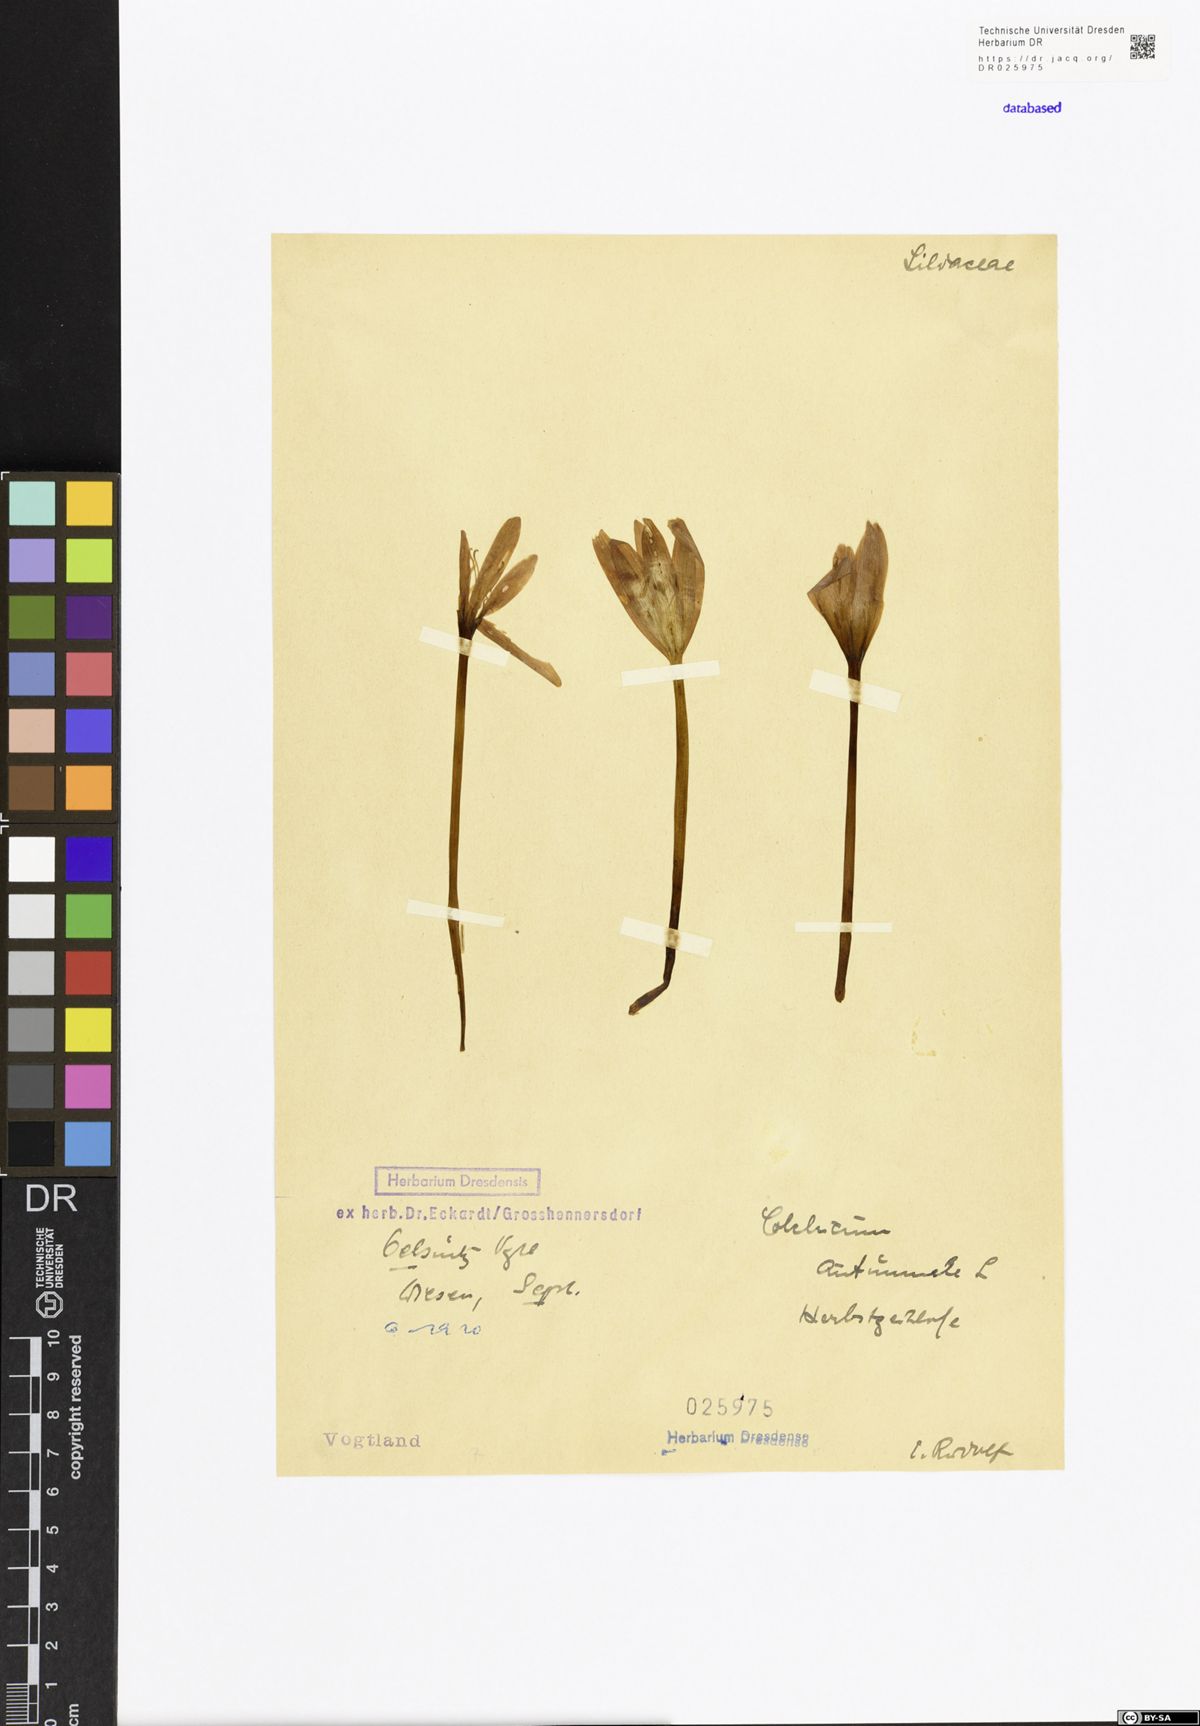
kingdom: Plantae
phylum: Tracheophyta
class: Liliopsida
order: Liliales
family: Colchicaceae
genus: Colchicum
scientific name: Colchicum autumnale
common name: Autumn crocus
